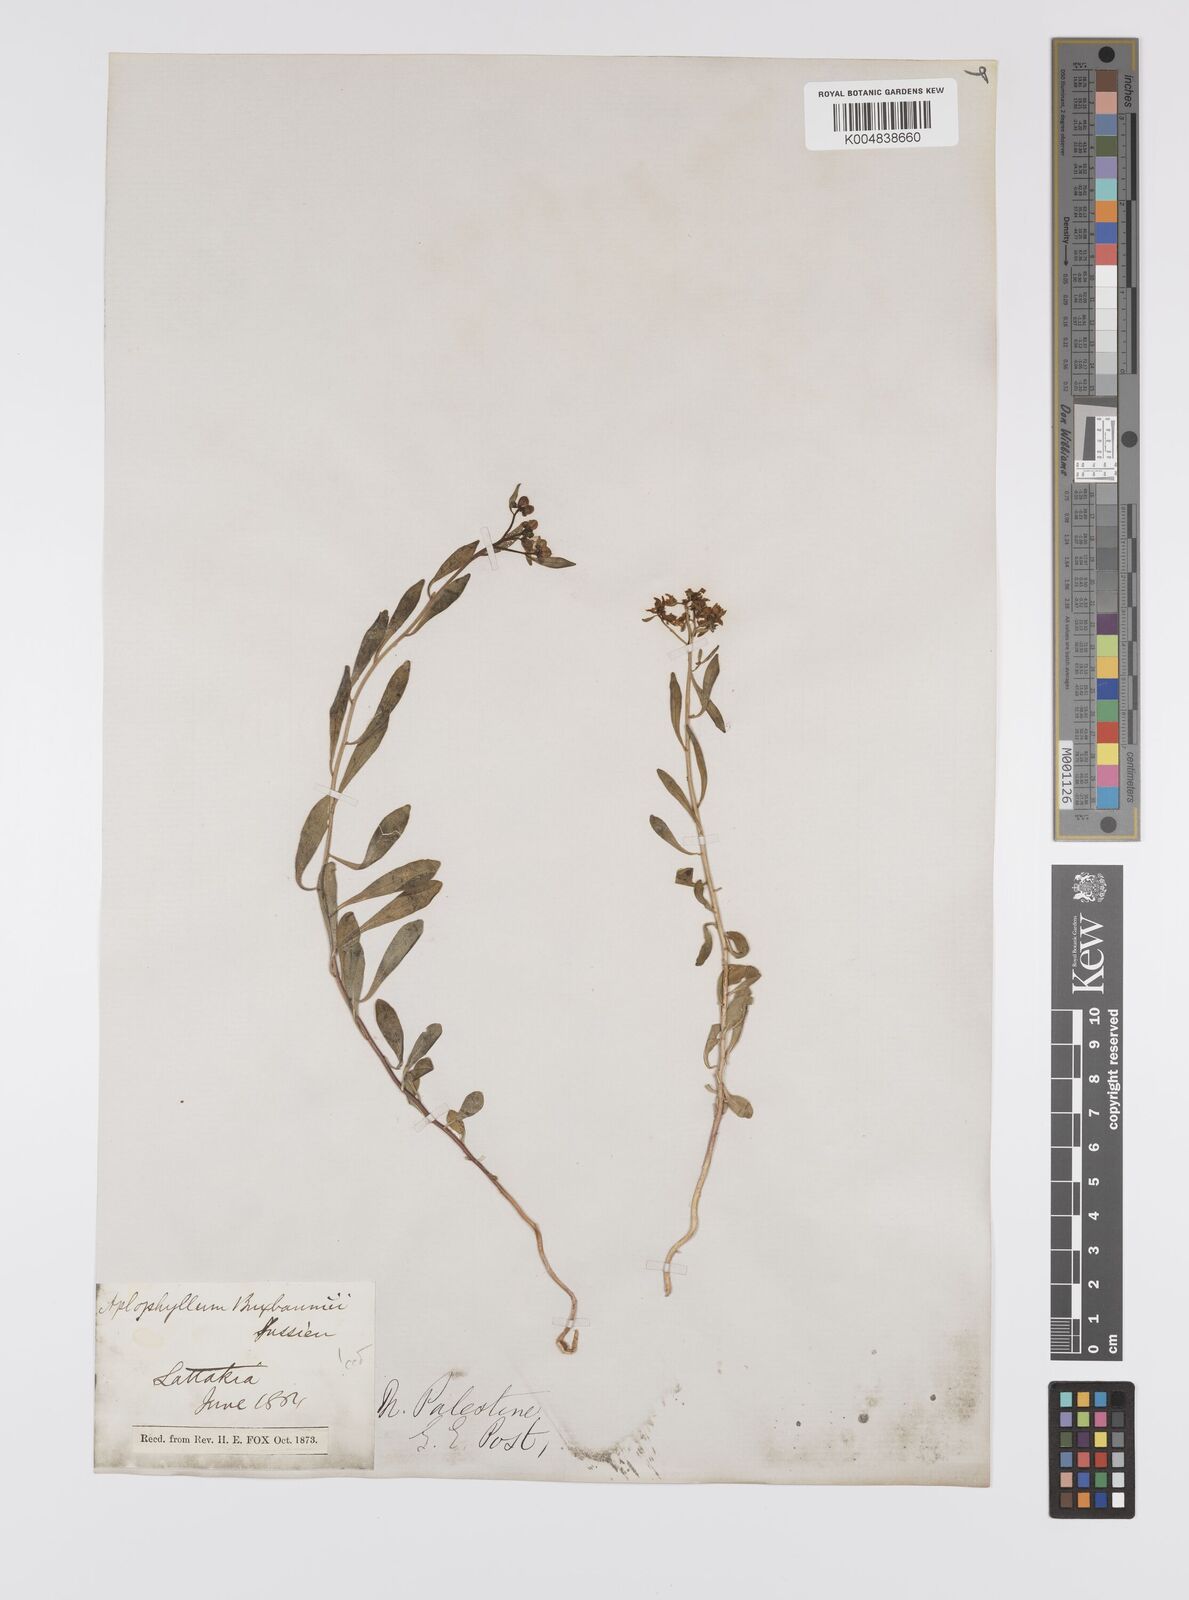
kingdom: Plantae
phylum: Tracheophyta
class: Magnoliopsida
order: Sapindales
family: Rutaceae
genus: Haplophyllum
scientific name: Haplophyllum
